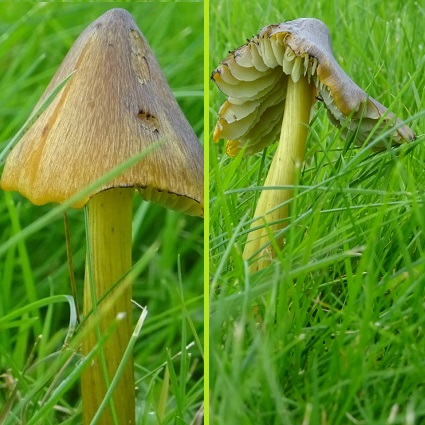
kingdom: Fungi
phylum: Basidiomycota
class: Agaricomycetes
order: Agaricales
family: Hygrophoraceae
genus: Hygrocybe
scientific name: Hygrocybe conica
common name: kegle-vokshat
